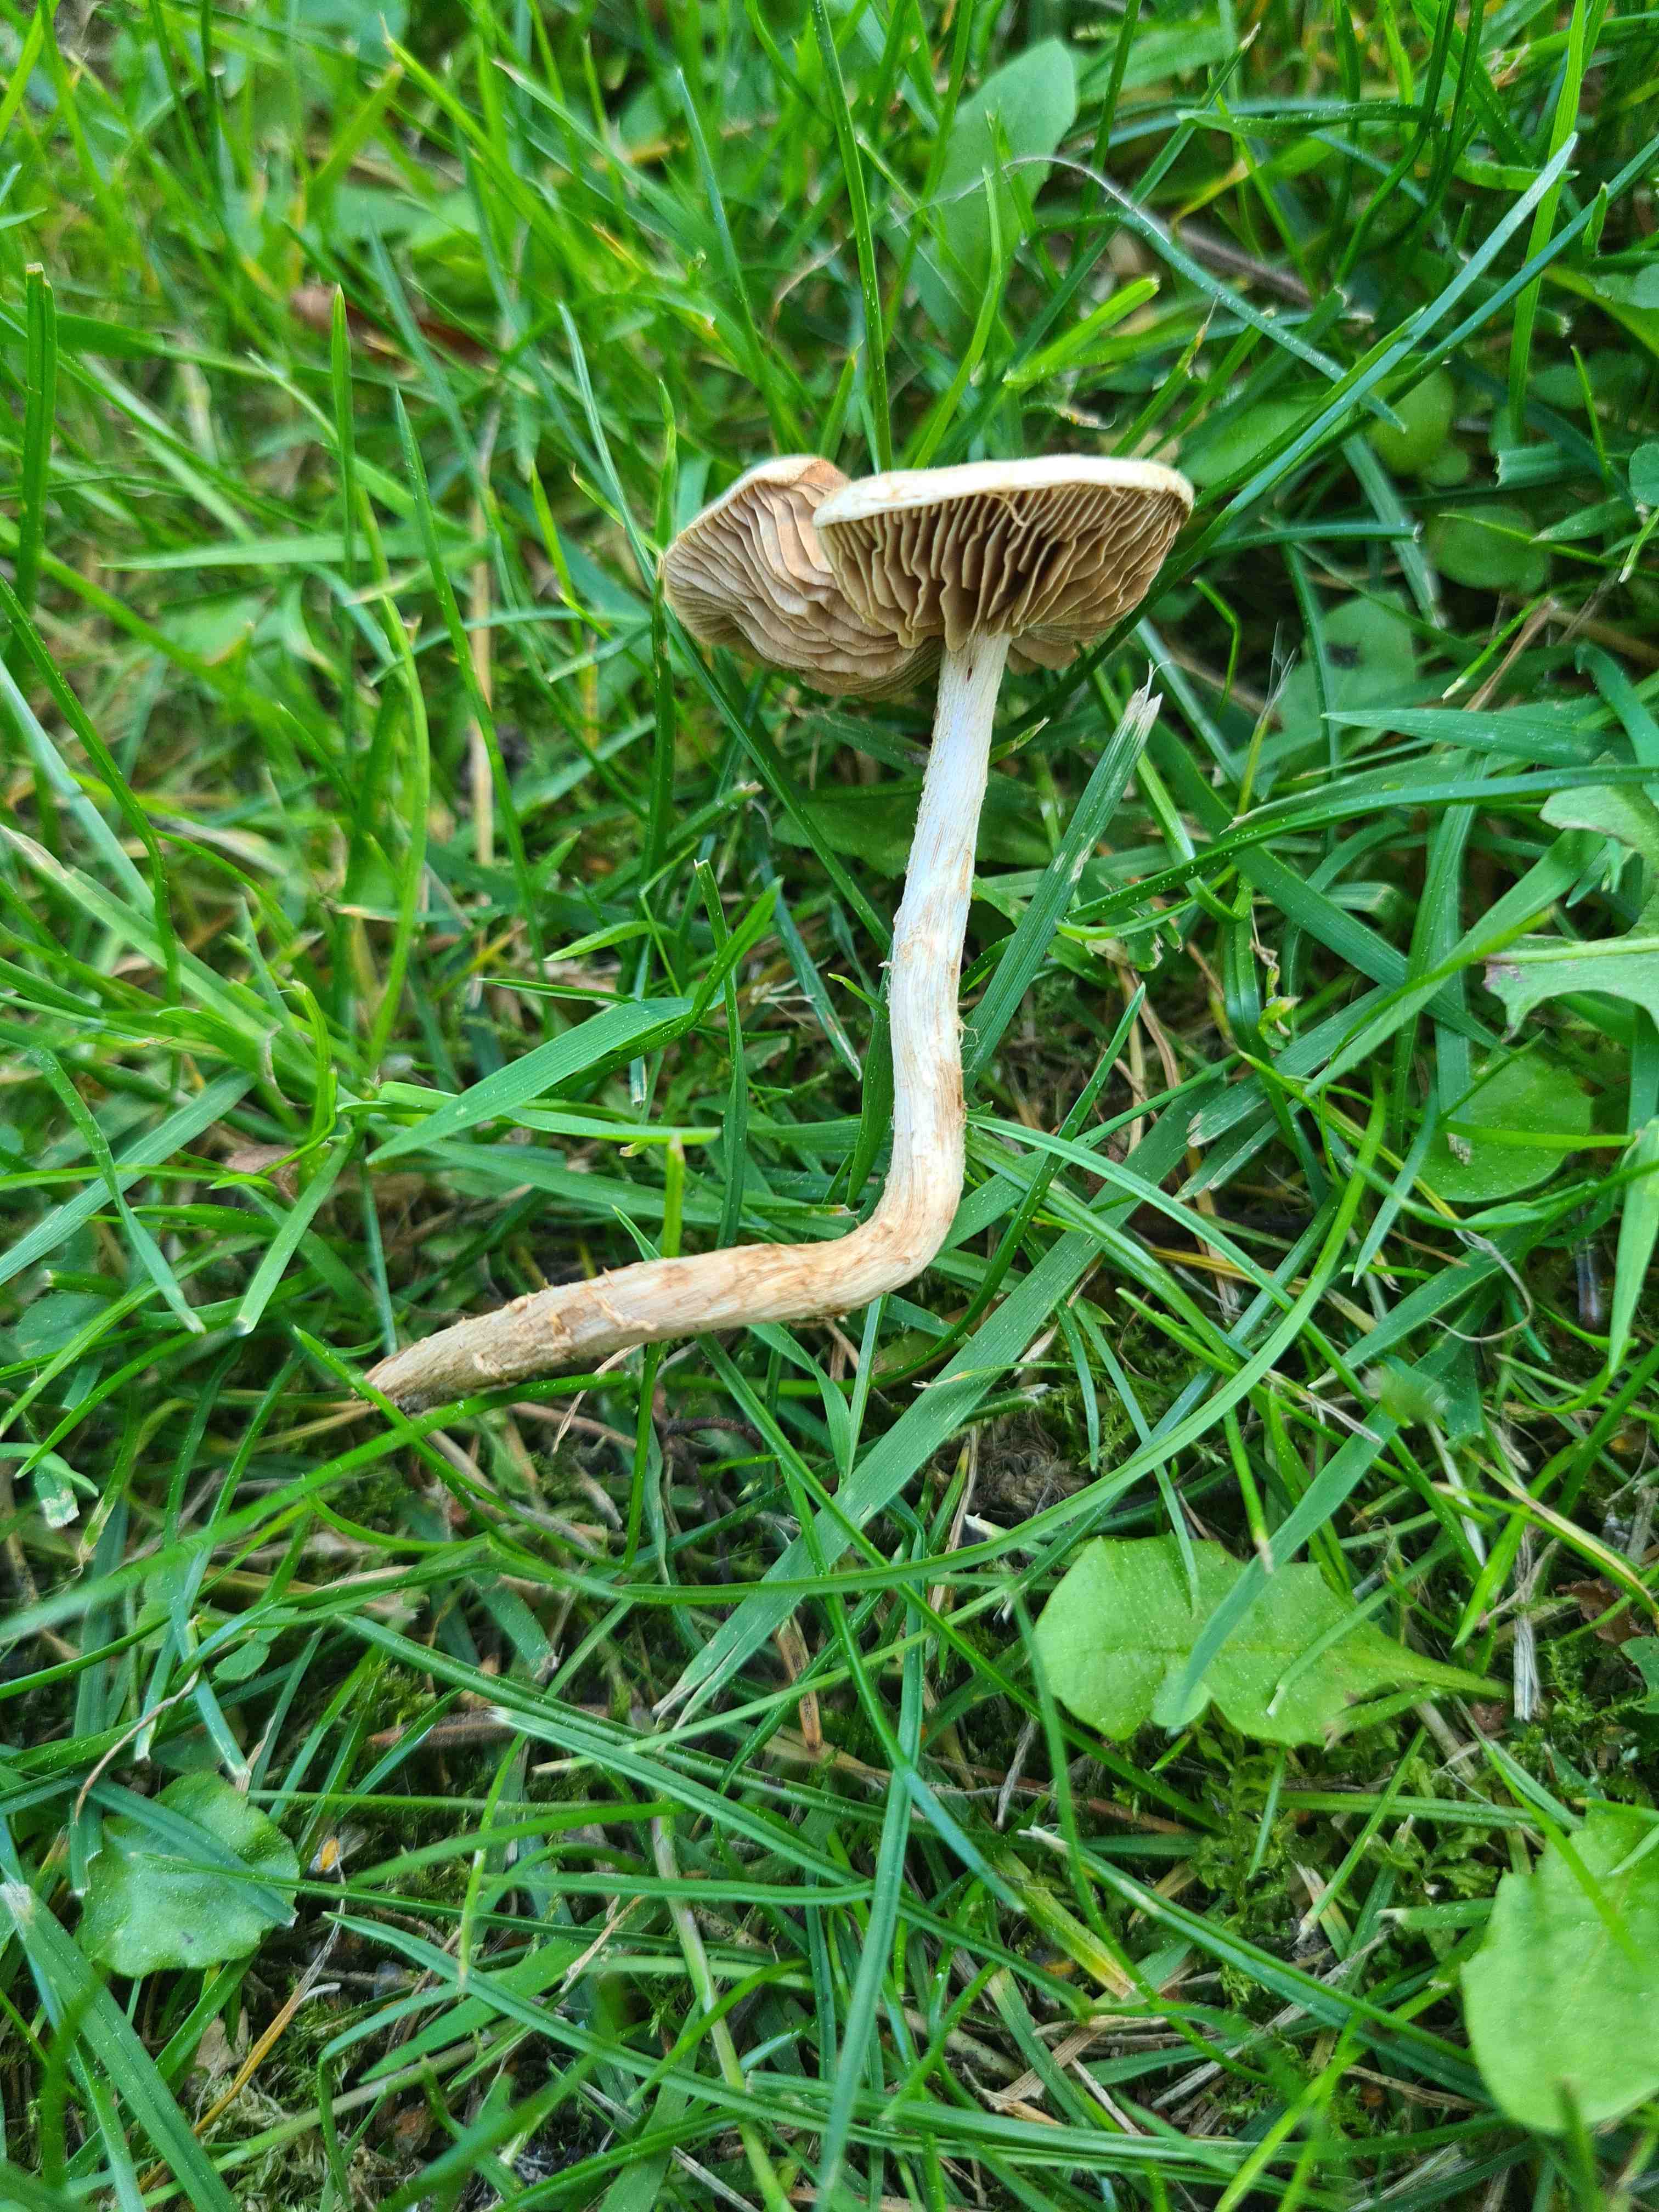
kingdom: Fungi
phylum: Basidiomycota
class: Agaricomycetes
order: Agaricales
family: Hymenogastraceae
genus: Hebeloma
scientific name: Hebeloma
